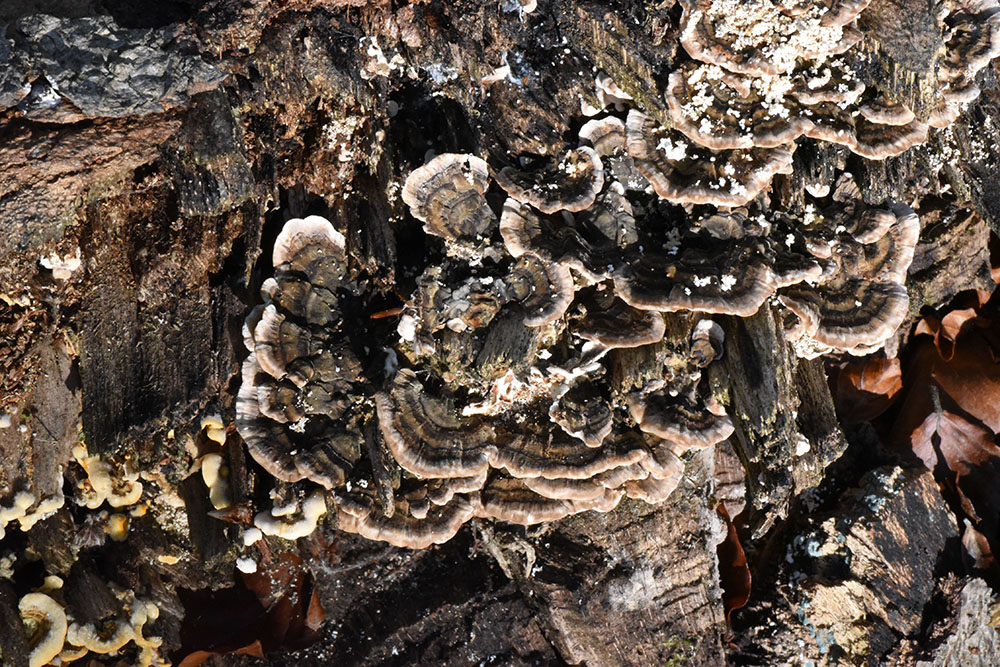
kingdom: Fungi
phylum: Basidiomycota
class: Agaricomycetes
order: Polyporales
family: Polyporaceae
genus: Trametes
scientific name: Trametes versicolor
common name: Turkeytail
